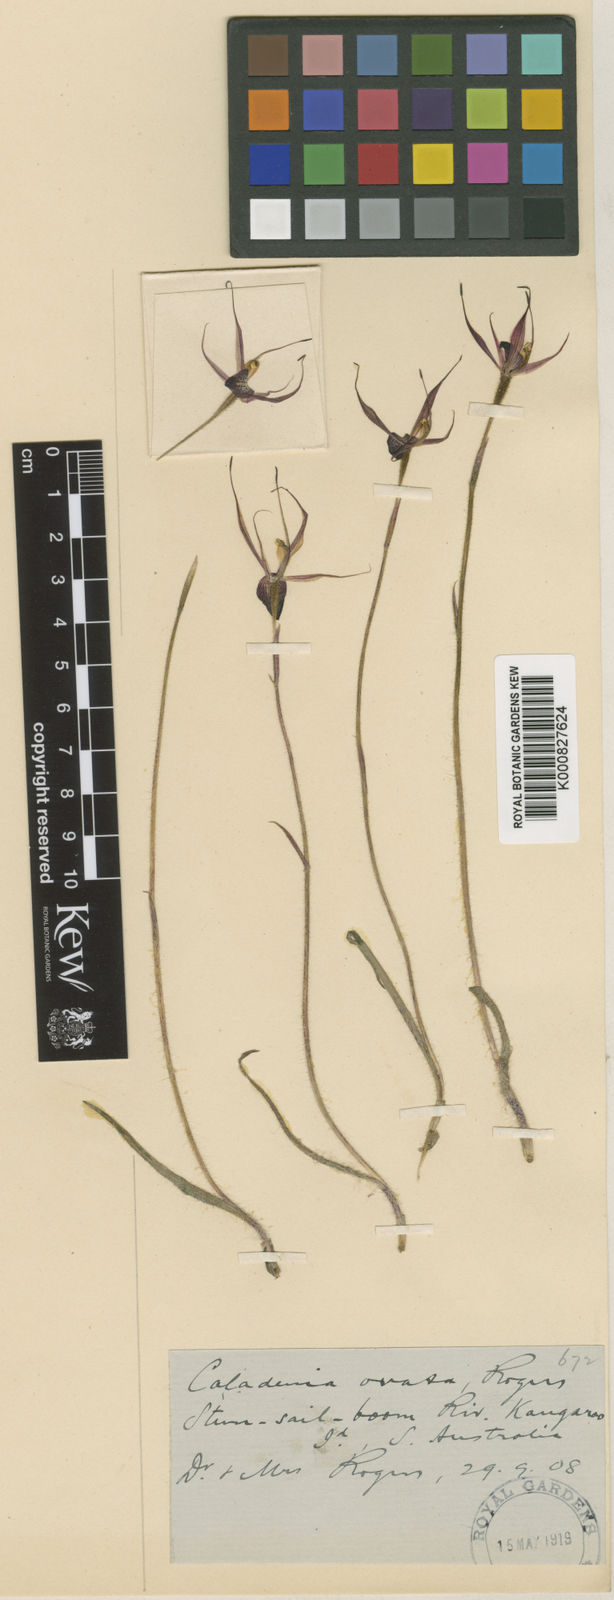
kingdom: Plantae
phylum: Tracheophyta
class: Liliopsida
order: Asparagales
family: Orchidaceae
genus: Caladenia
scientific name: Caladenia ovata
